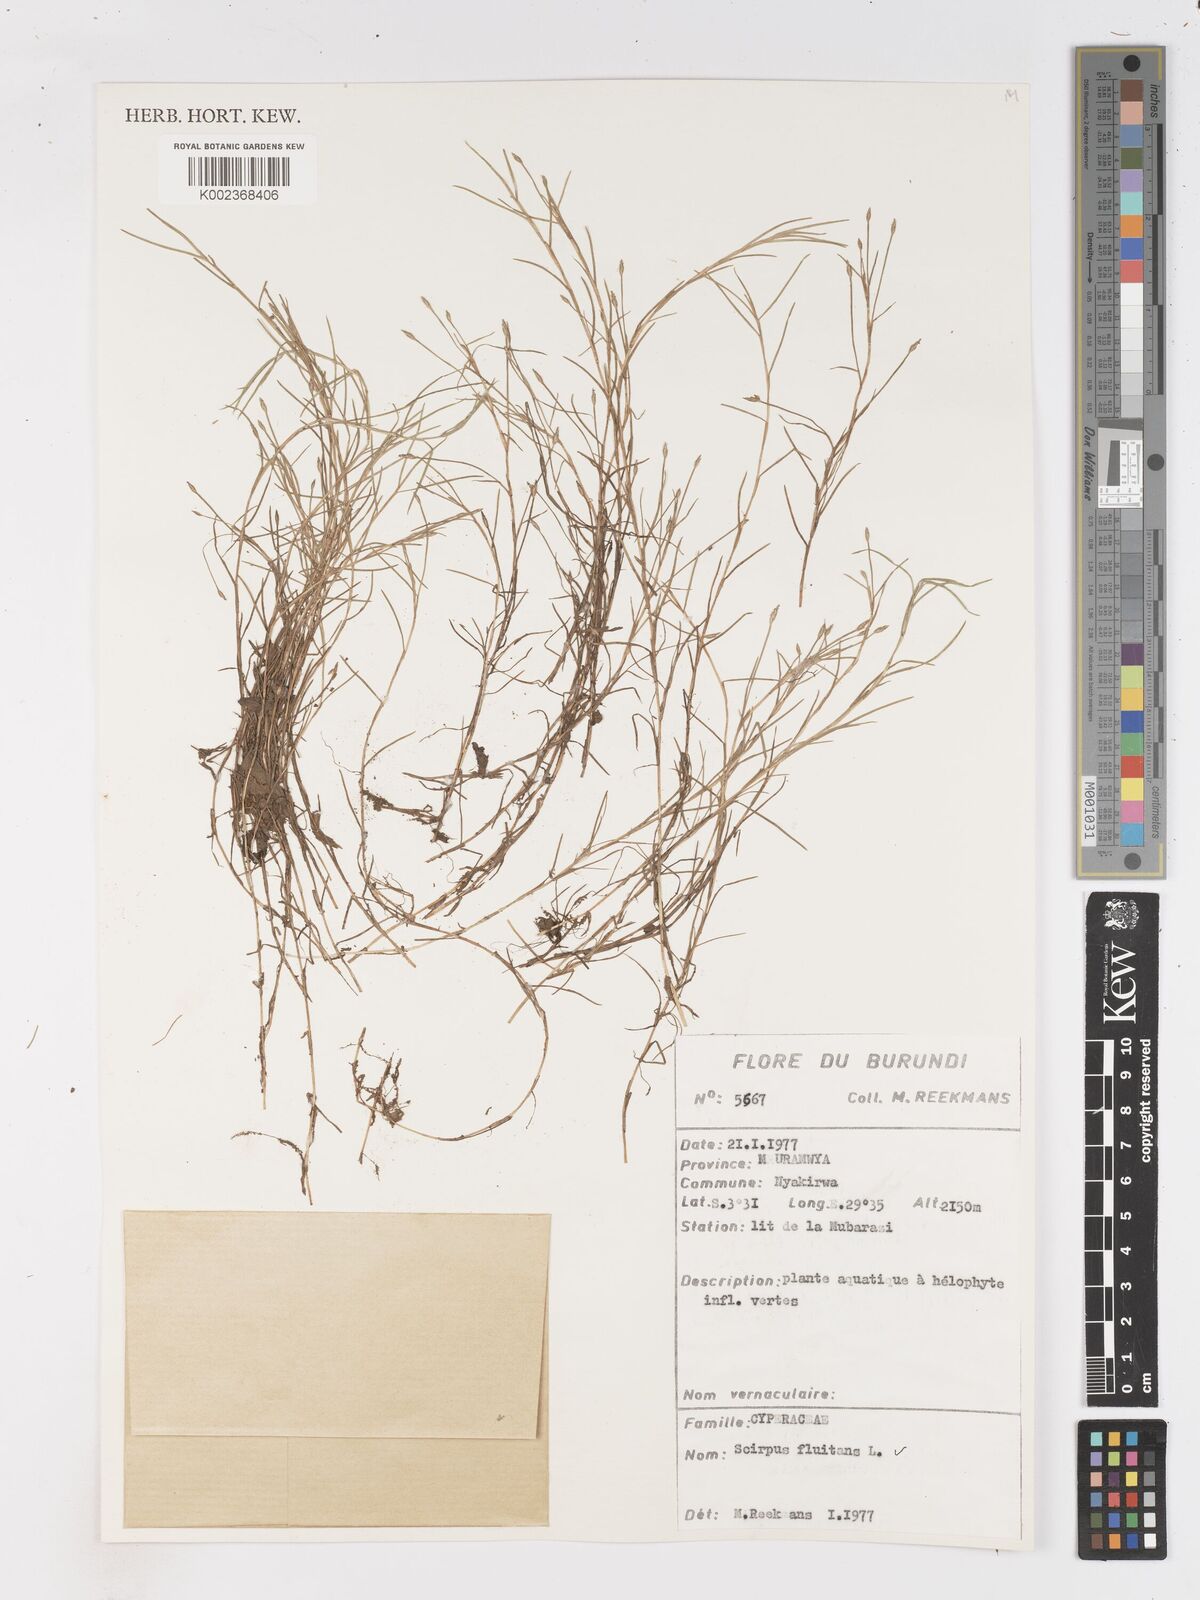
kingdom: Plantae
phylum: Tracheophyta
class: Liliopsida
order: Poales
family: Cyperaceae
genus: Isolepis
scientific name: Isolepis fluitans
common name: Floating club-rush
